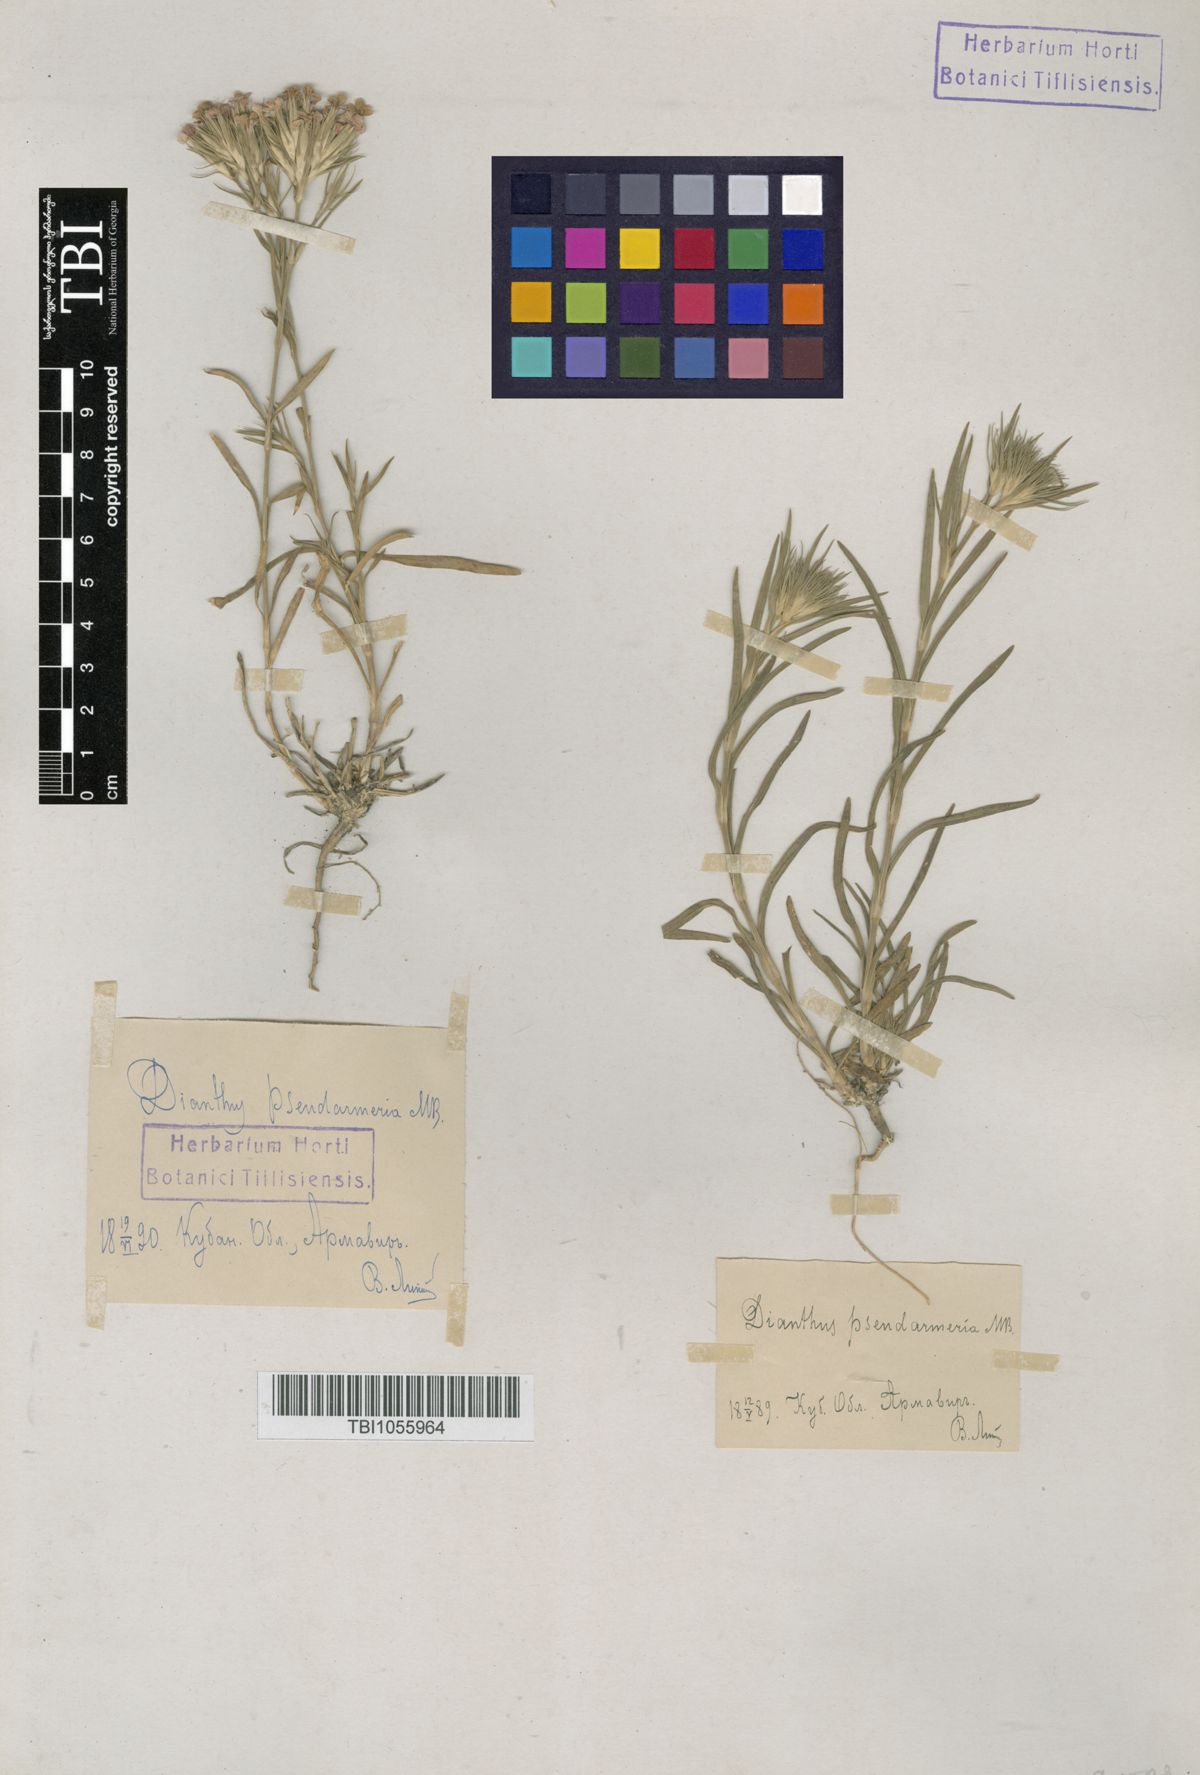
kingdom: Plantae
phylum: Tracheophyta
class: Magnoliopsida
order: Caryophyllales
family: Caryophyllaceae
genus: Dianthus
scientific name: Dianthus pseudarmeria
